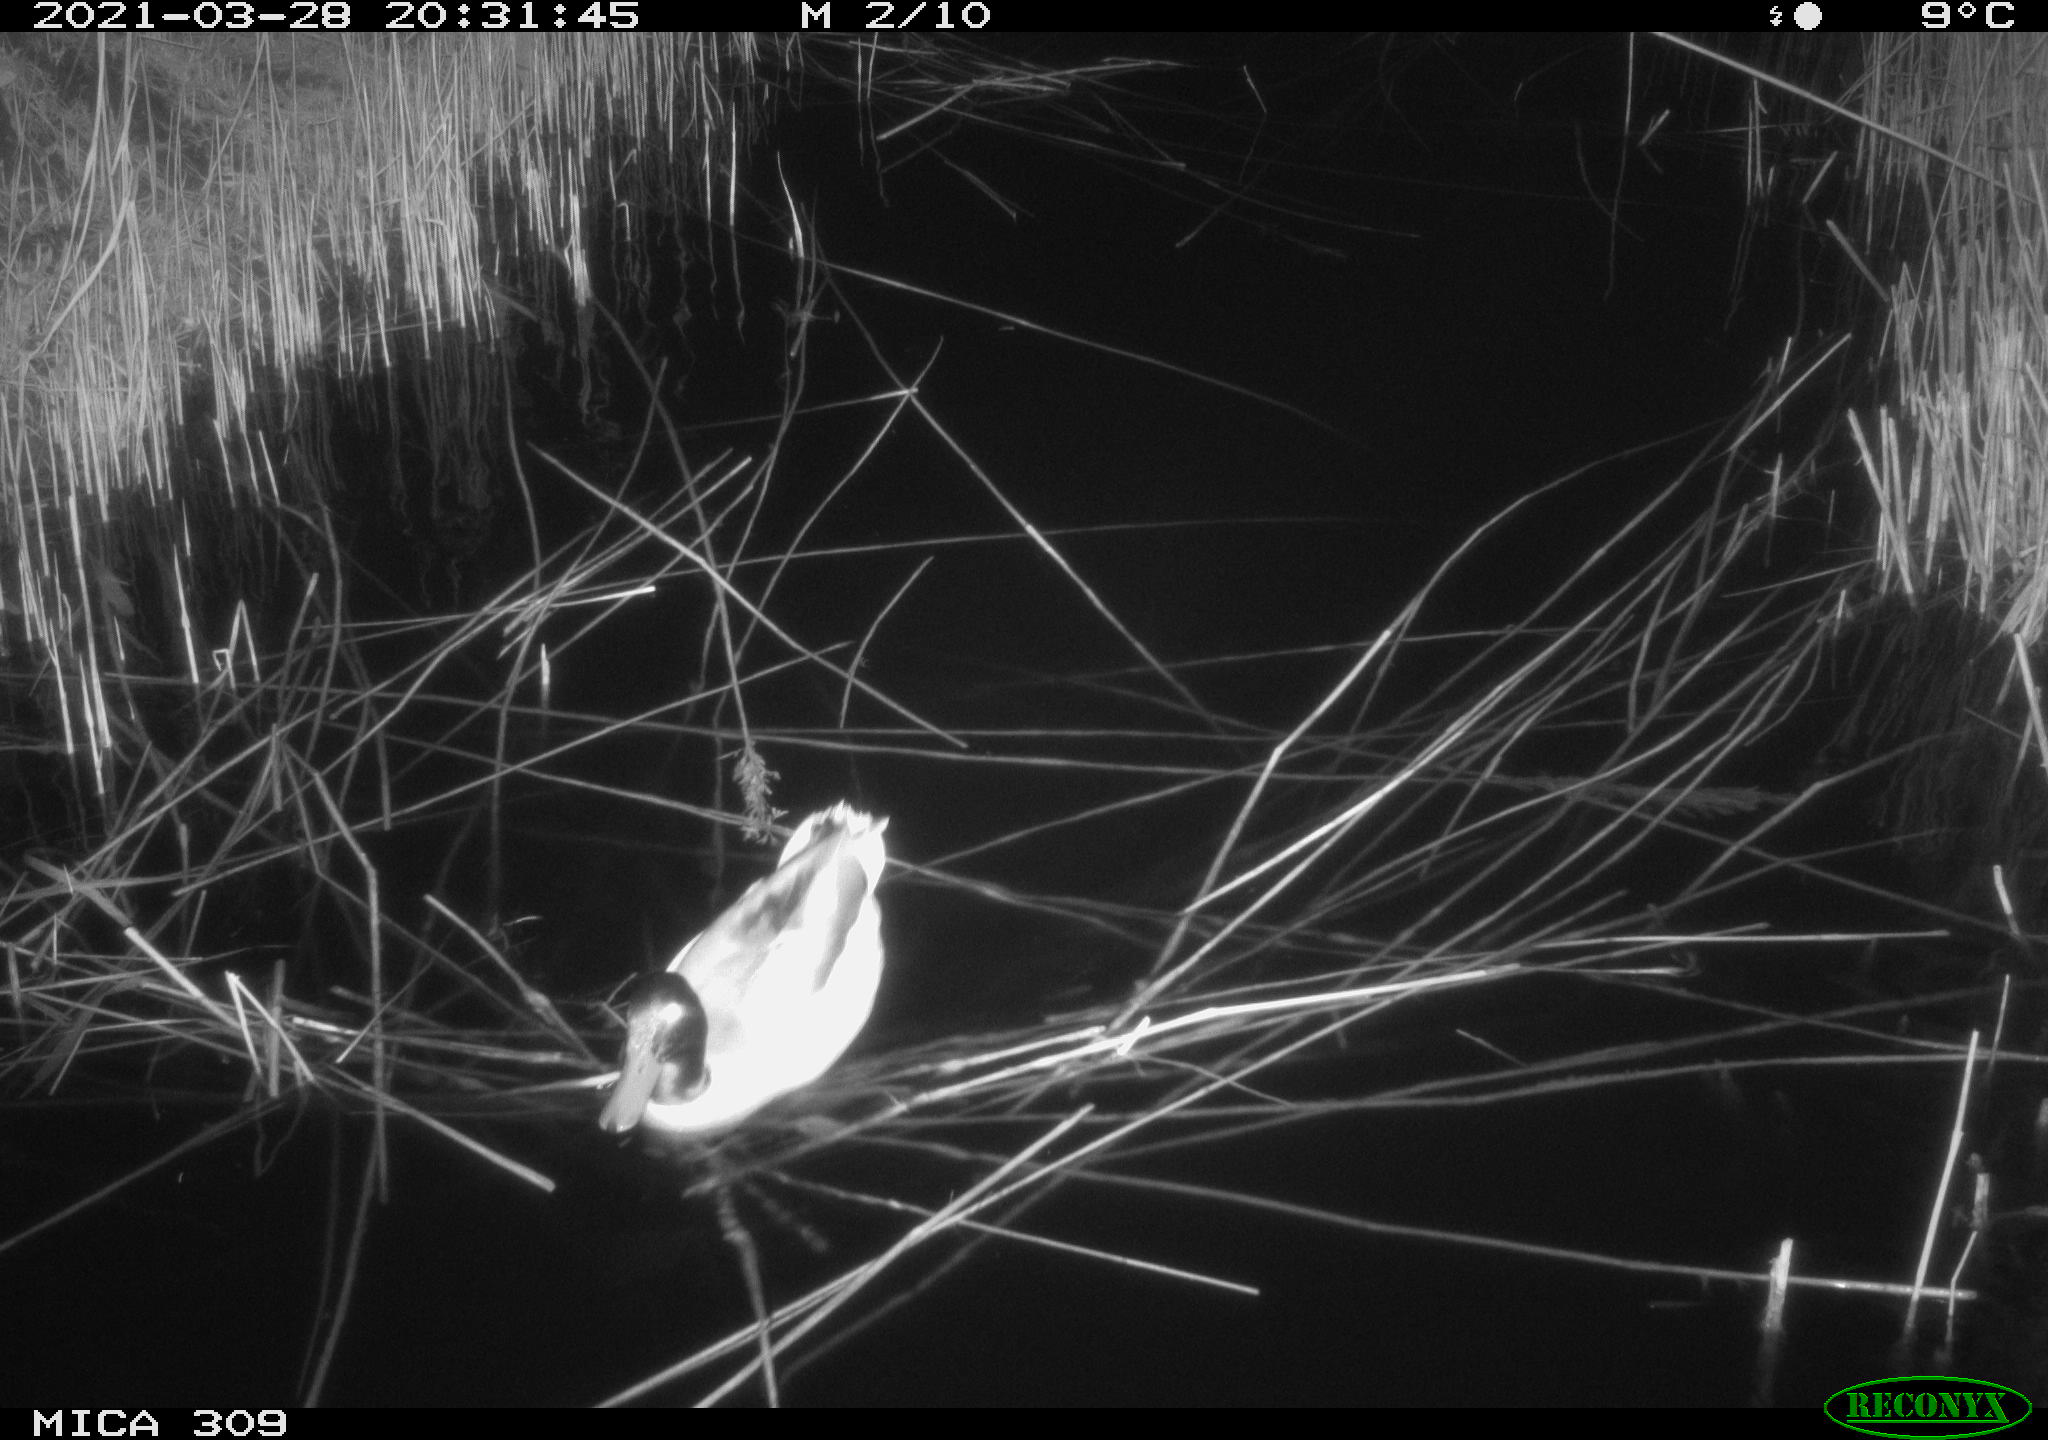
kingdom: Animalia
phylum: Chordata
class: Aves
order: Anseriformes
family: Anatidae
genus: Anas
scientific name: Anas platyrhynchos
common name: Mallard
